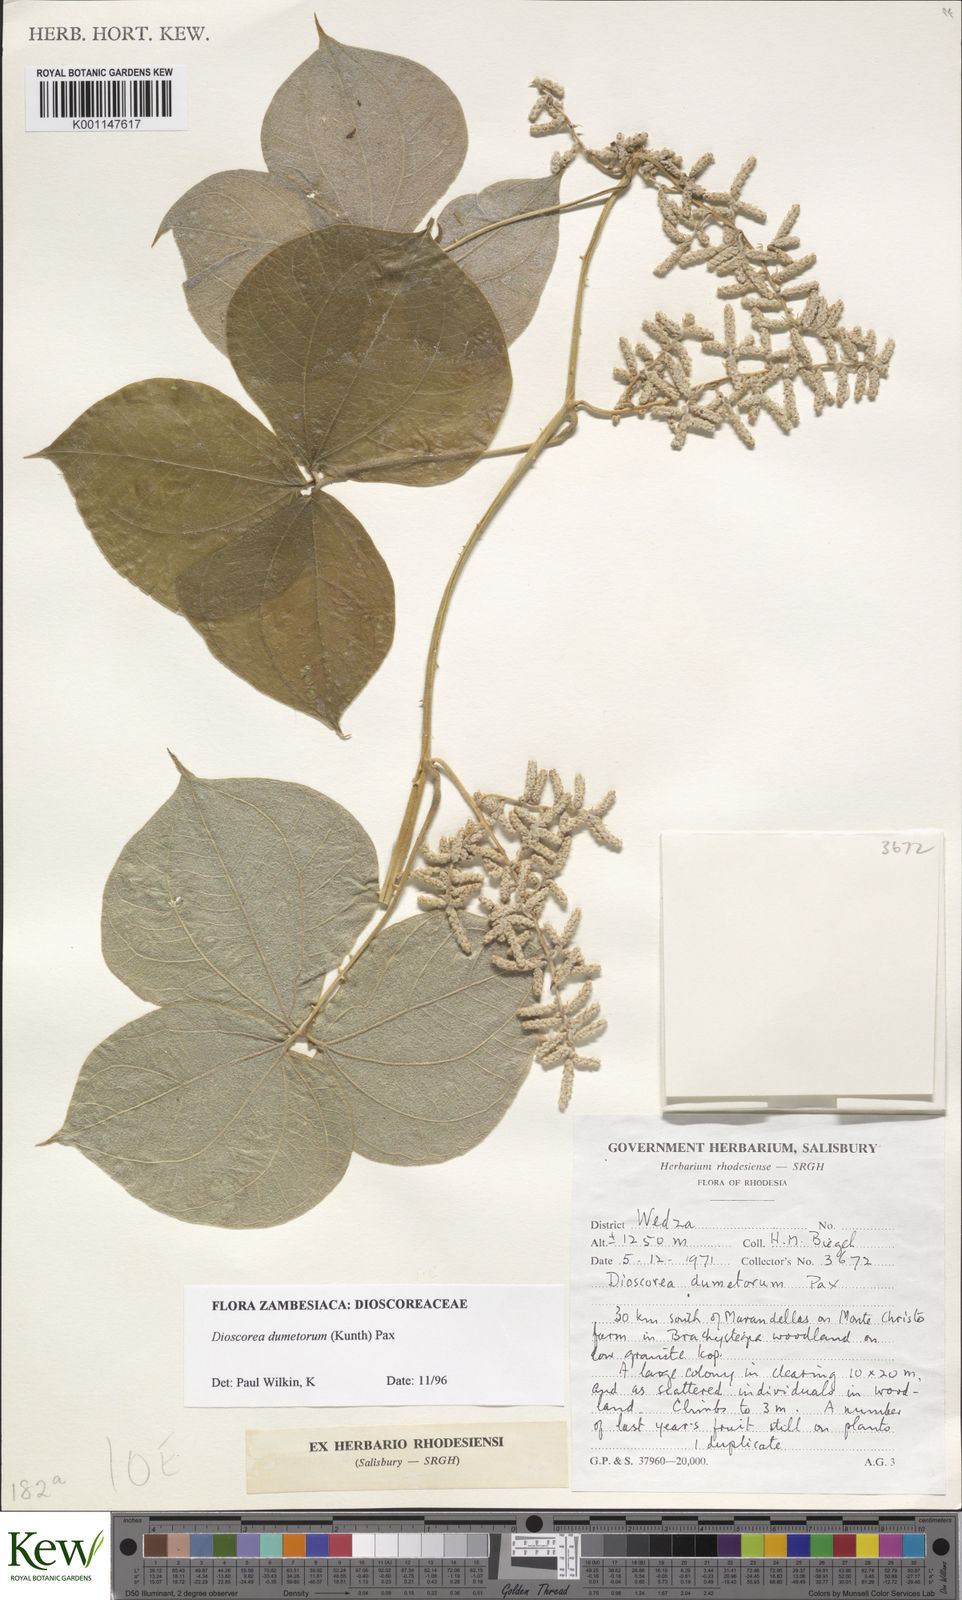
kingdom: Plantae
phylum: Tracheophyta
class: Liliopsida
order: Dioscoreales
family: Dioscoreaceae
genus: Dioscorea
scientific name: Dioscorea dumetorum
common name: African bitter yam
